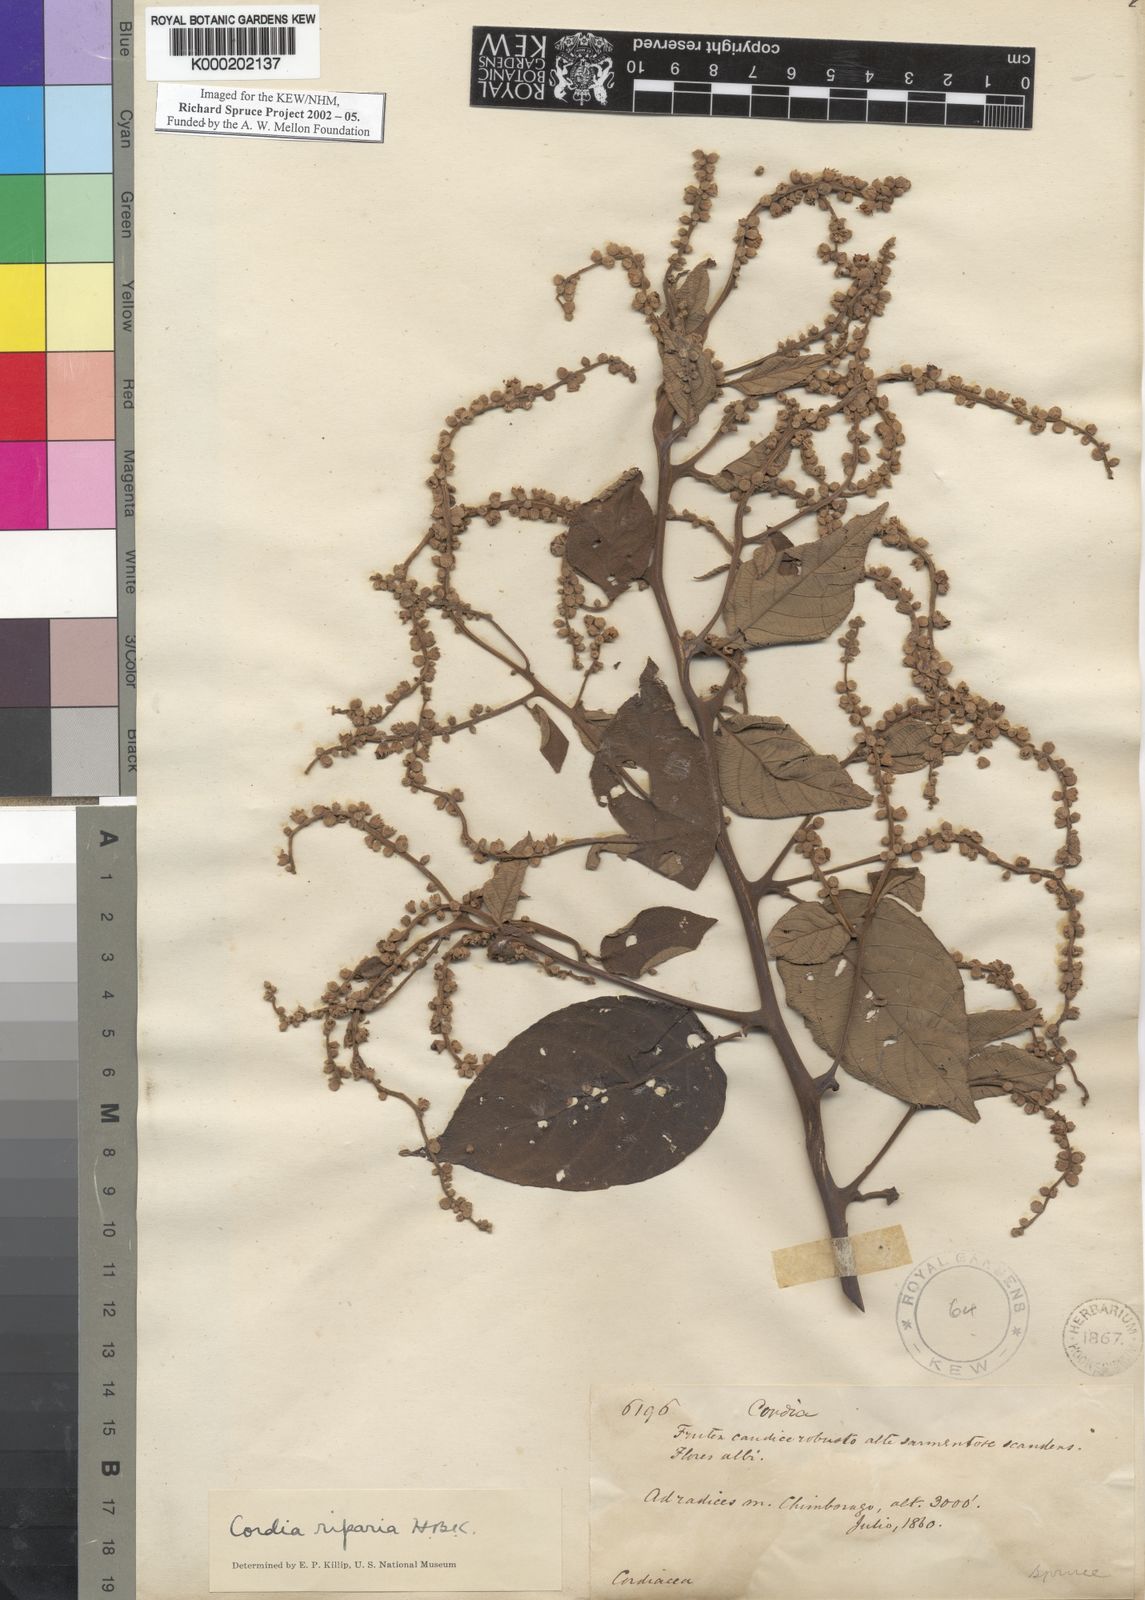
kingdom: Plantae
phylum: Tracheophyta
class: Magnoliopsida
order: Boraginales
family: Cordiaceae
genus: Varronia
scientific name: Varronia spinescens
